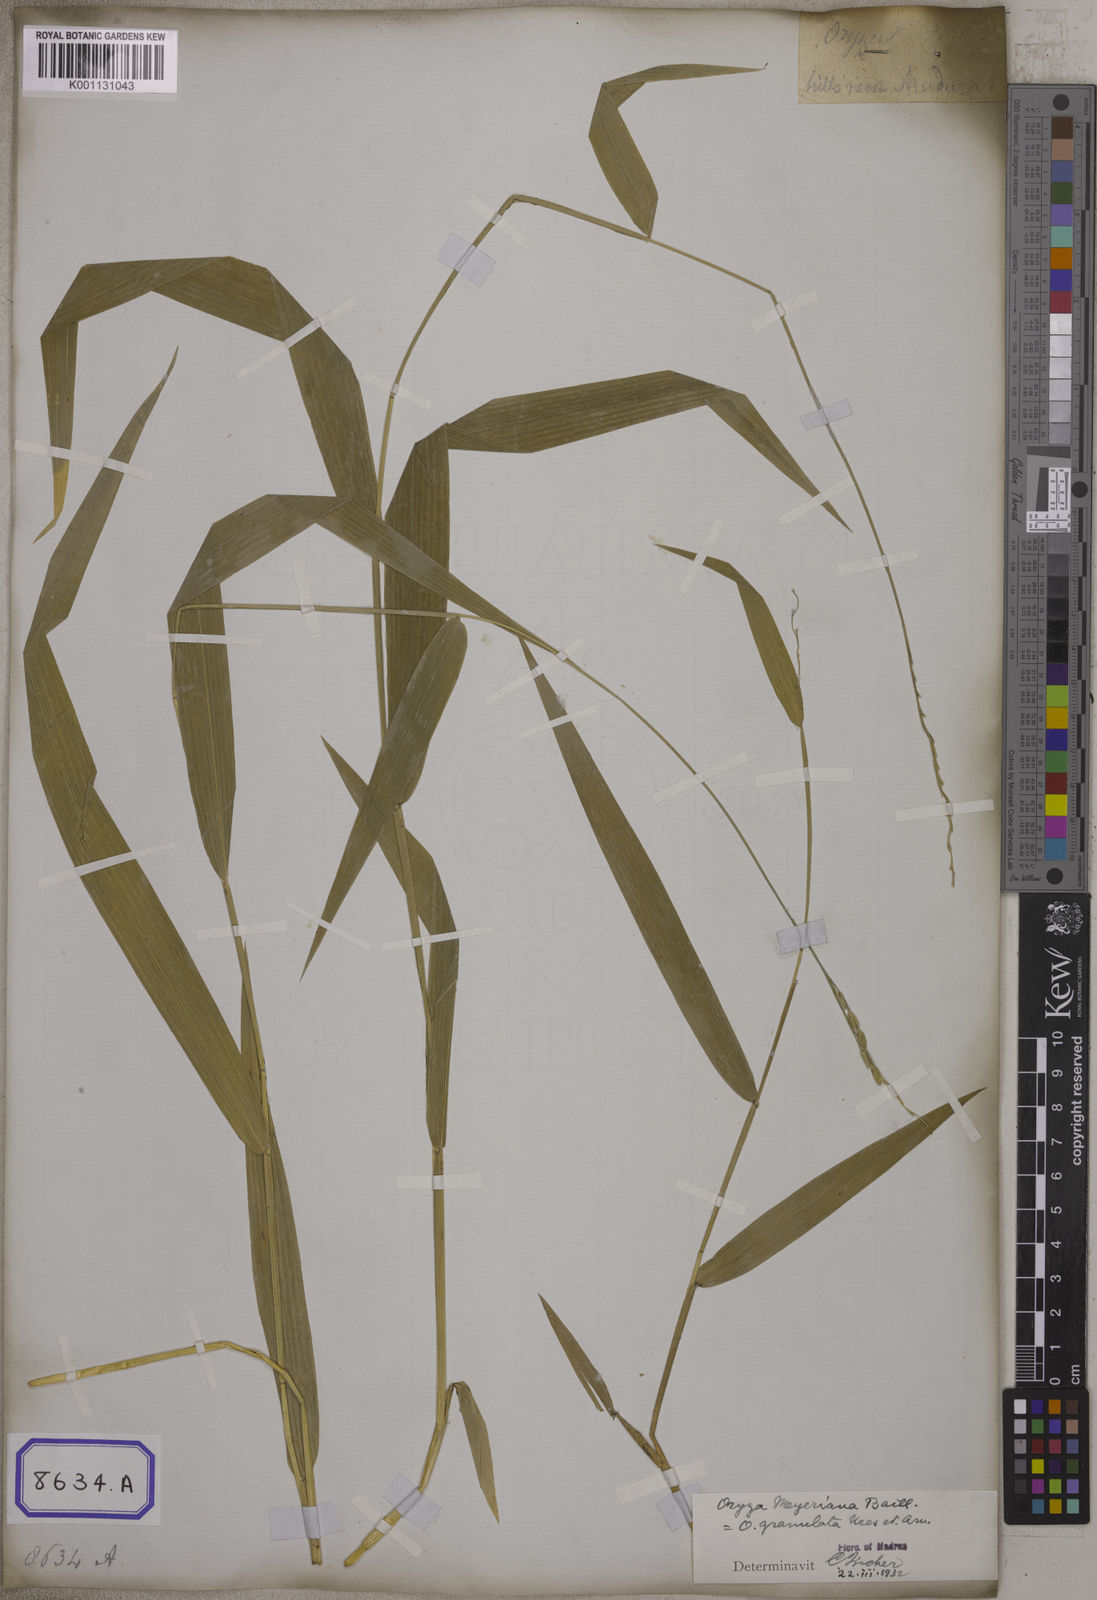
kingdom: Plantae
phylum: Tracheophyta
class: Liliopsida
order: Poales
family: Poaceae
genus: Oryza
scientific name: Oryza
